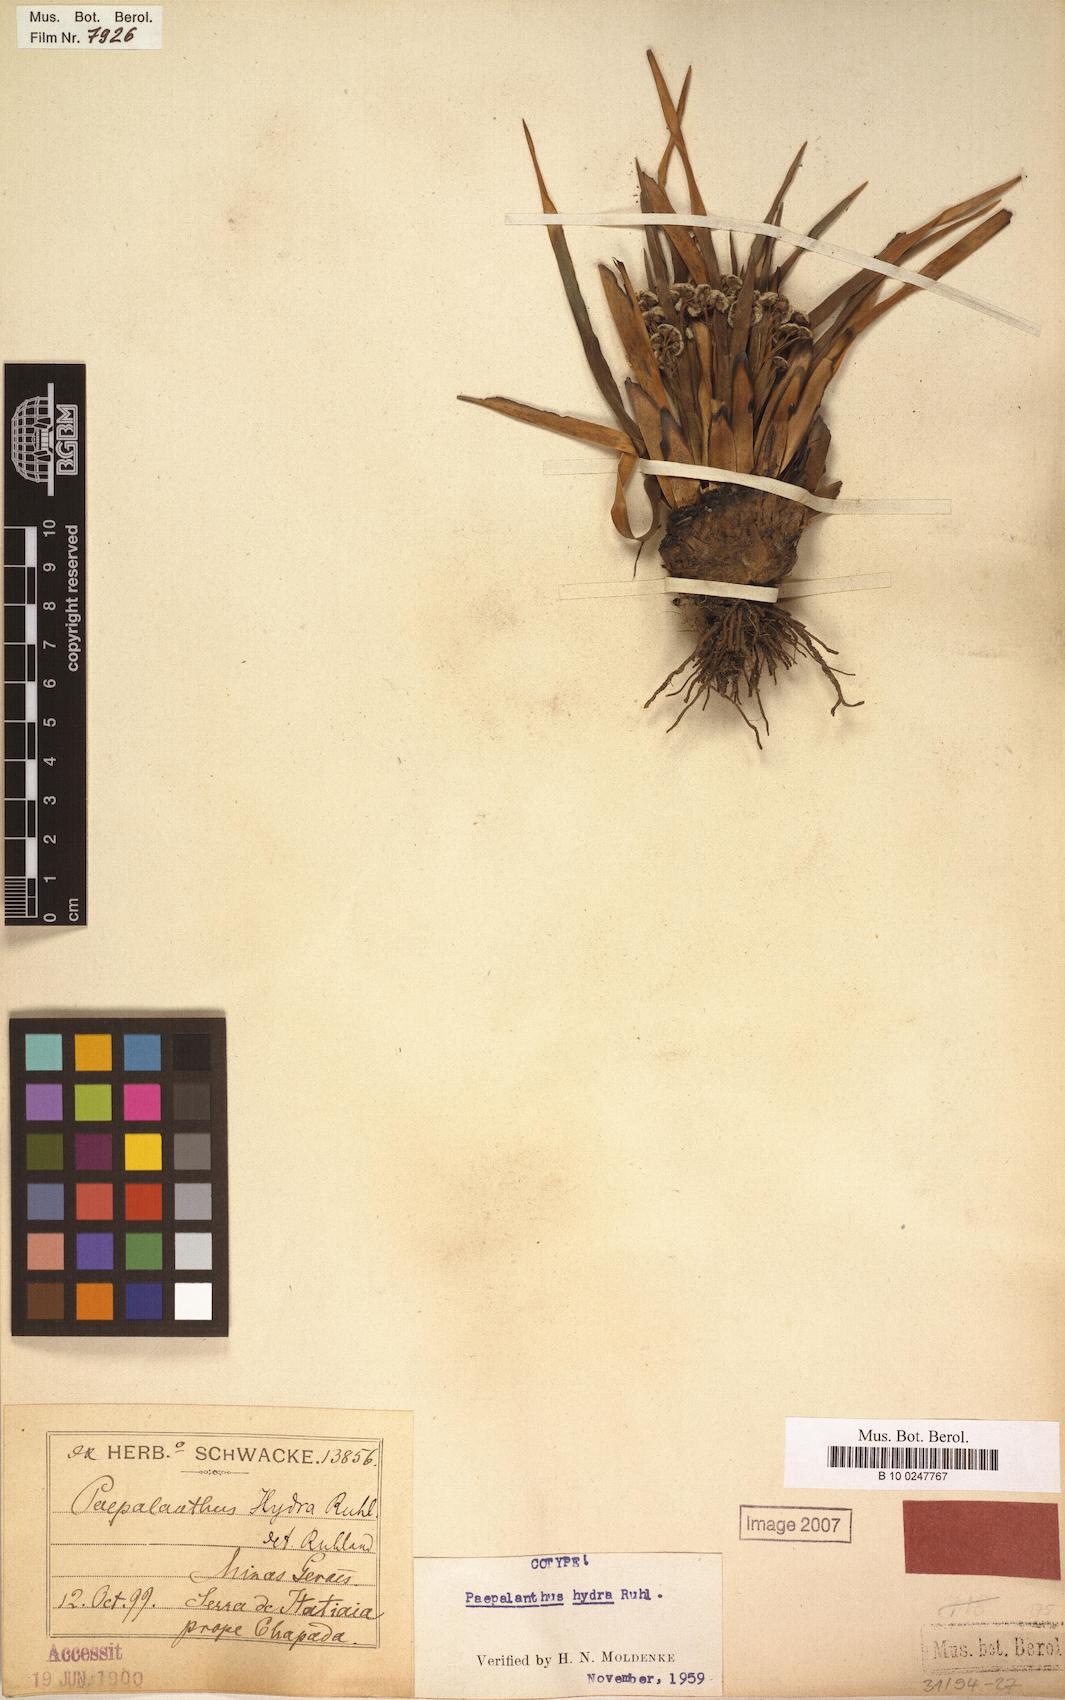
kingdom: Plantae
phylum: Tracheophyta
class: Liliopsida
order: Poales
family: Eriocaulaceae
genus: Paepalanthus
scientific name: Paepalanthus hydra
